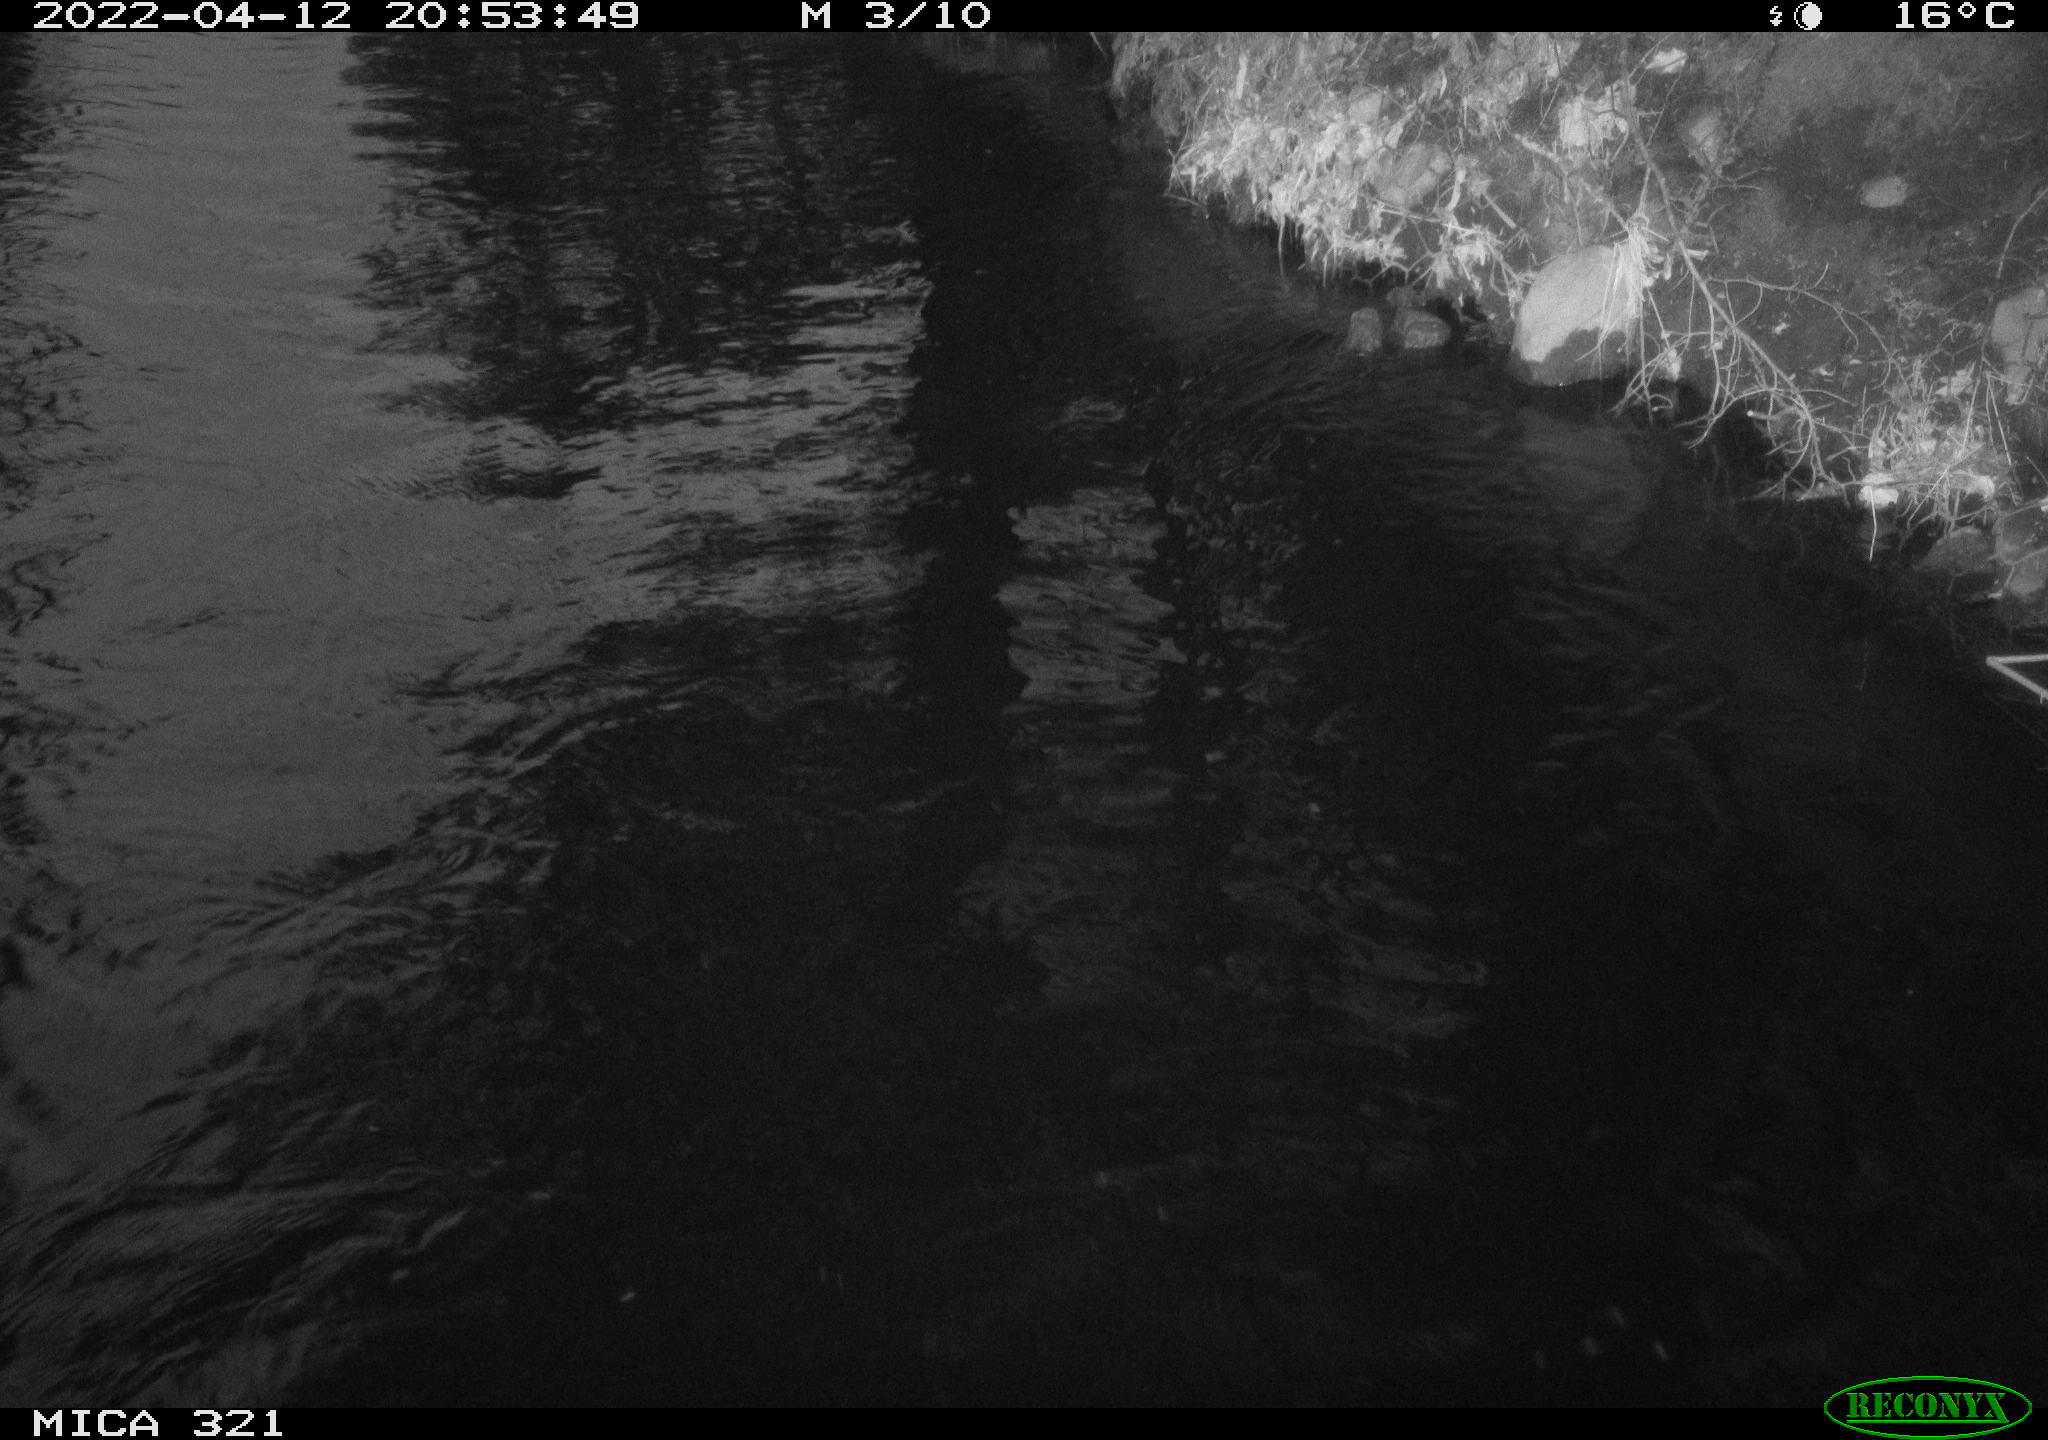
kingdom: Animalia
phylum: Chordata
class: Aves
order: Anseriformes
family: Anatidae
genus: Anas
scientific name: Anas platyrhynchos
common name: Mallard
